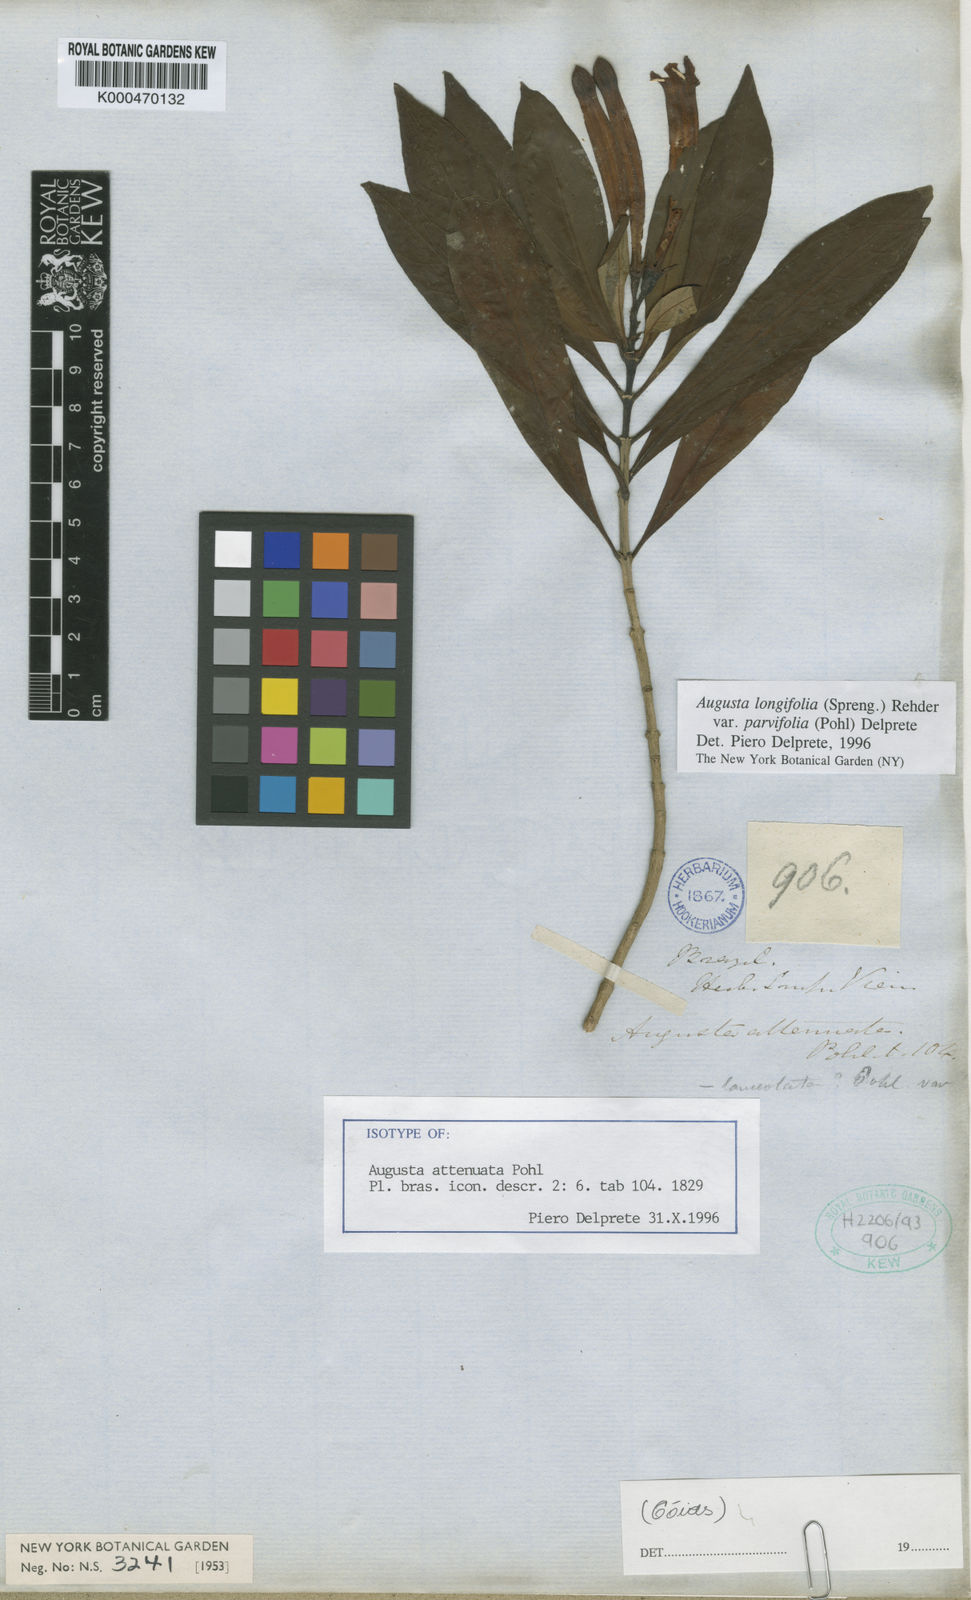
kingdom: Plantae
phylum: Tracheophyta
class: Magnoliopsida
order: Gentianales
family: Rubiaceae
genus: Augusta
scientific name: Augusta longifolia
